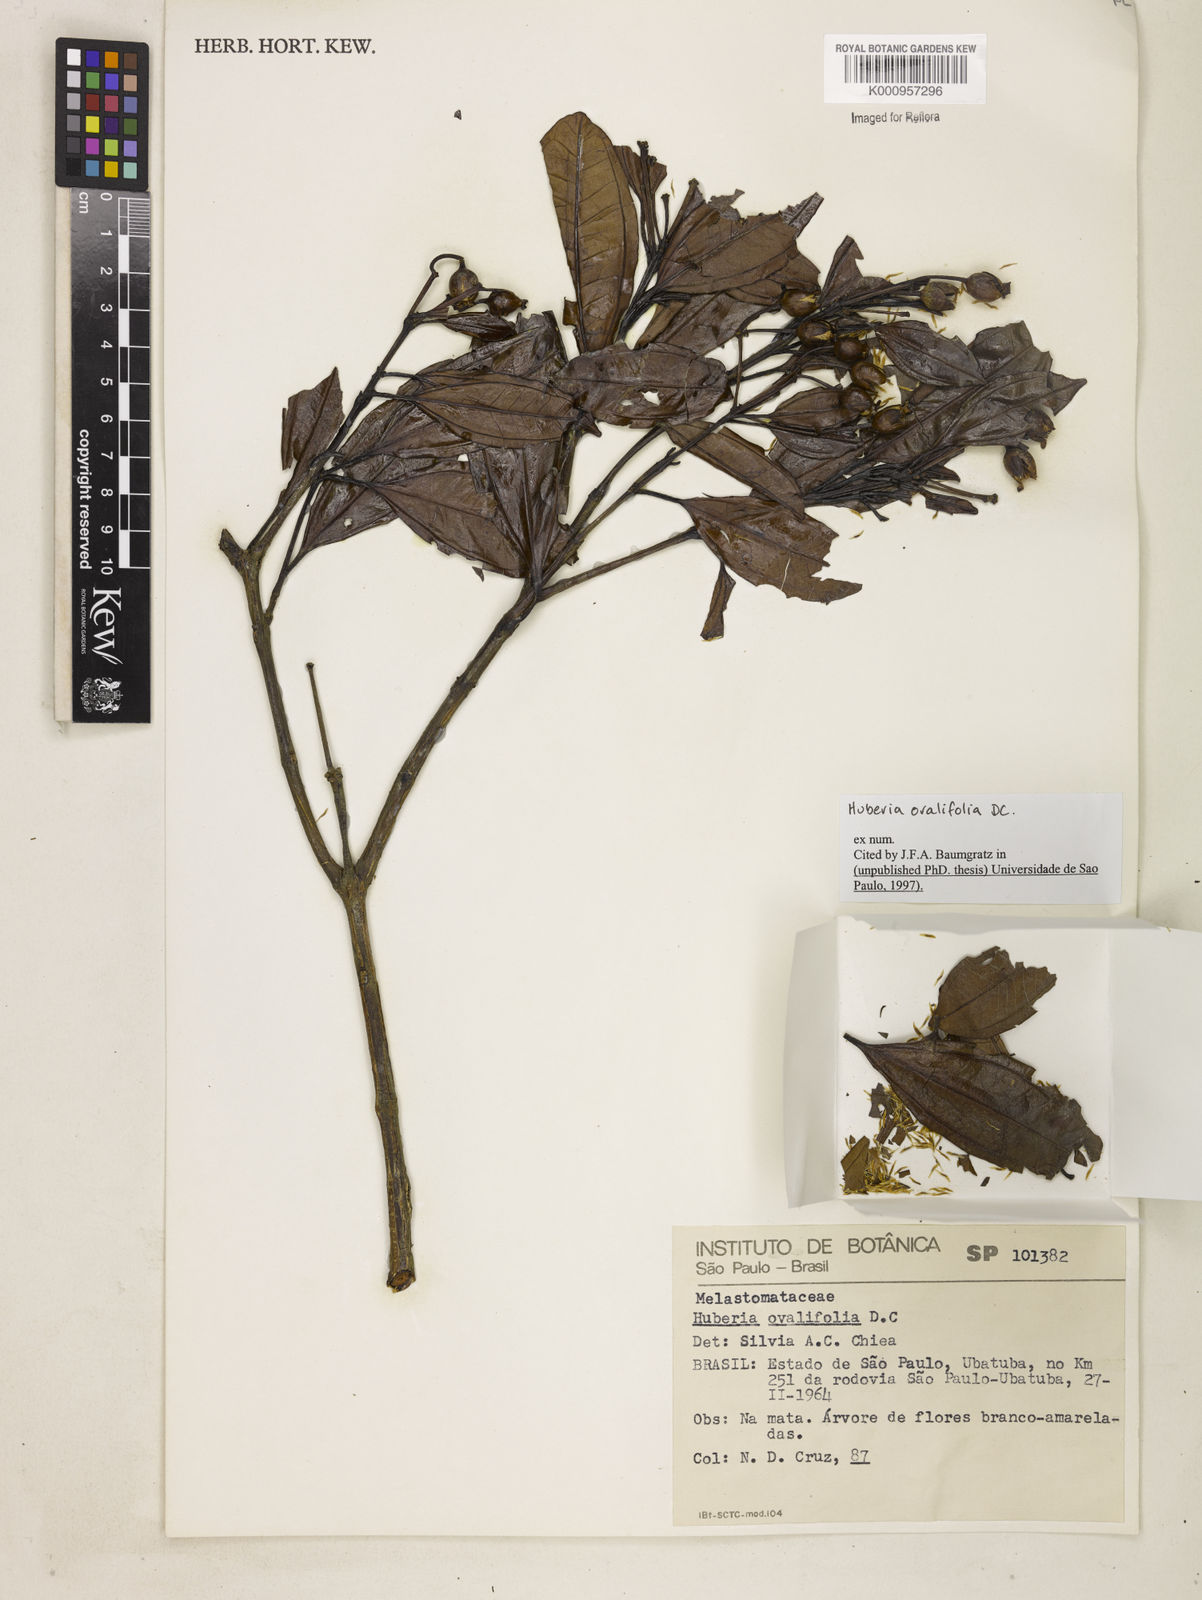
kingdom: Plantae
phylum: Tracheophyta
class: Magnoliopsida
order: Myrtales
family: Melastomataceae
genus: Huberia
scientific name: Huberia ovalifolia
